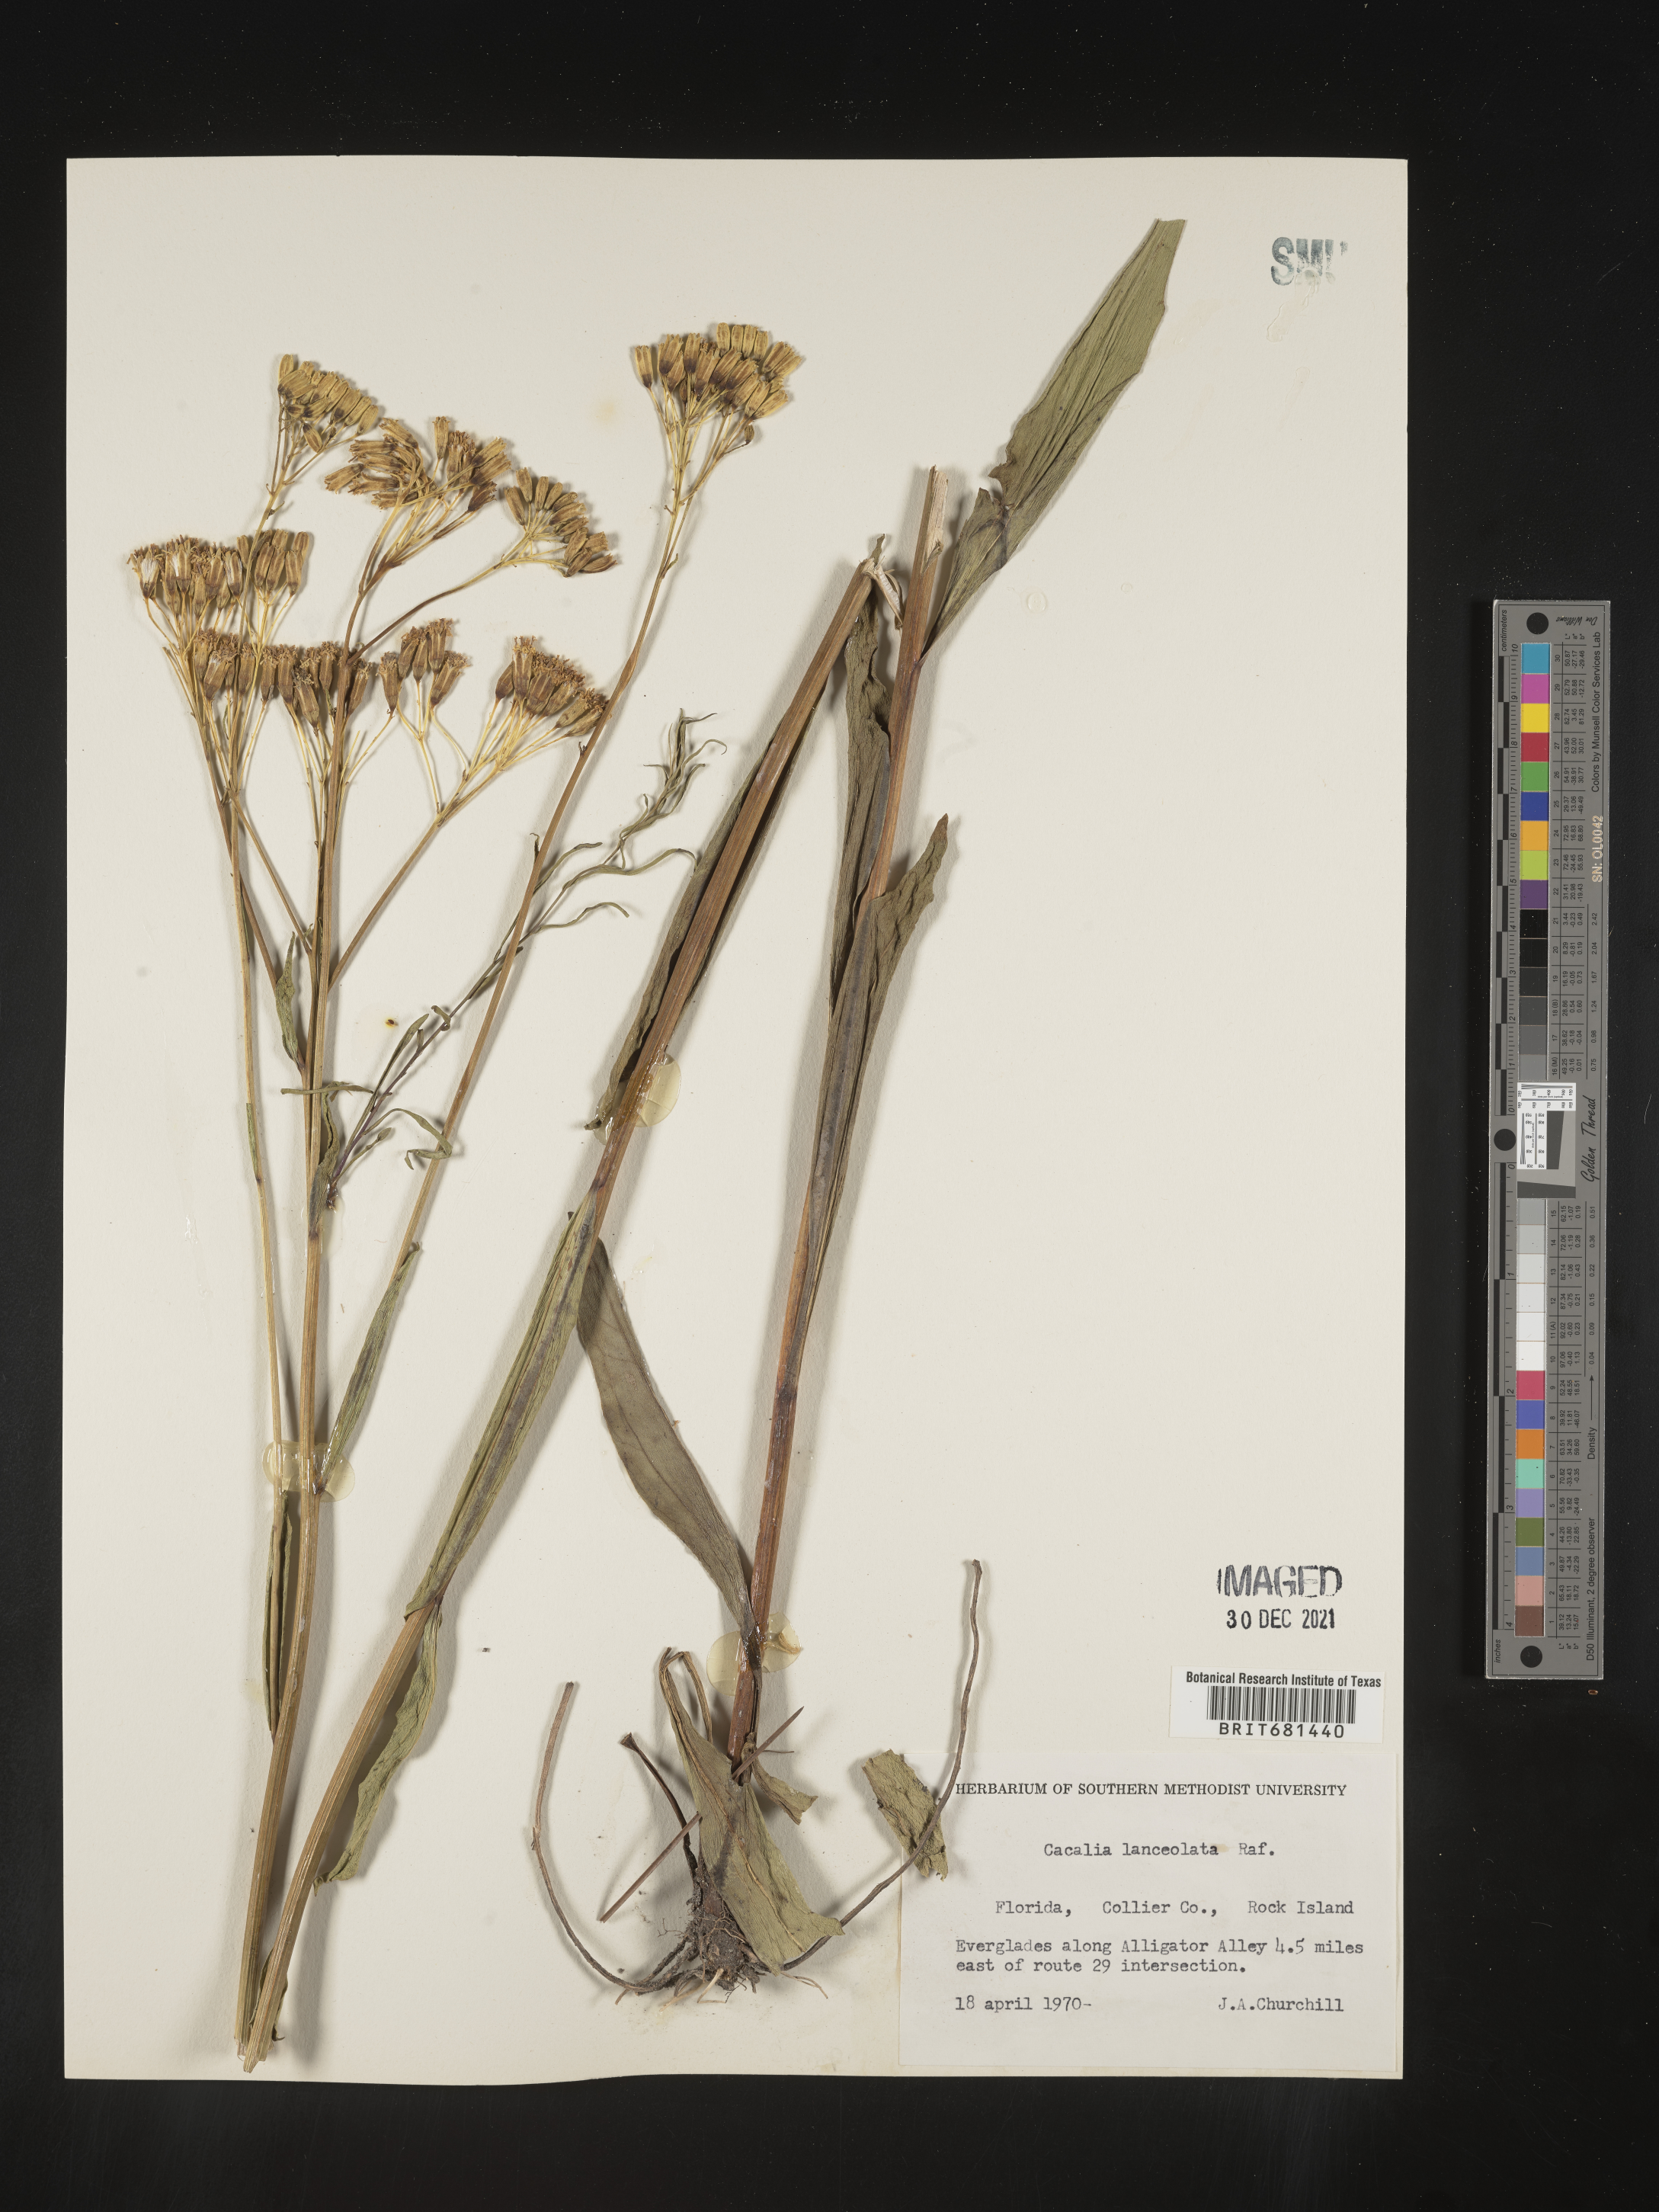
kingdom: Plantae
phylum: Tracheophyta
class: Magnoliopsida
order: Asterales
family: Asteraceae
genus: Arnoglossum
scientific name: Arnoglossum ovatum
